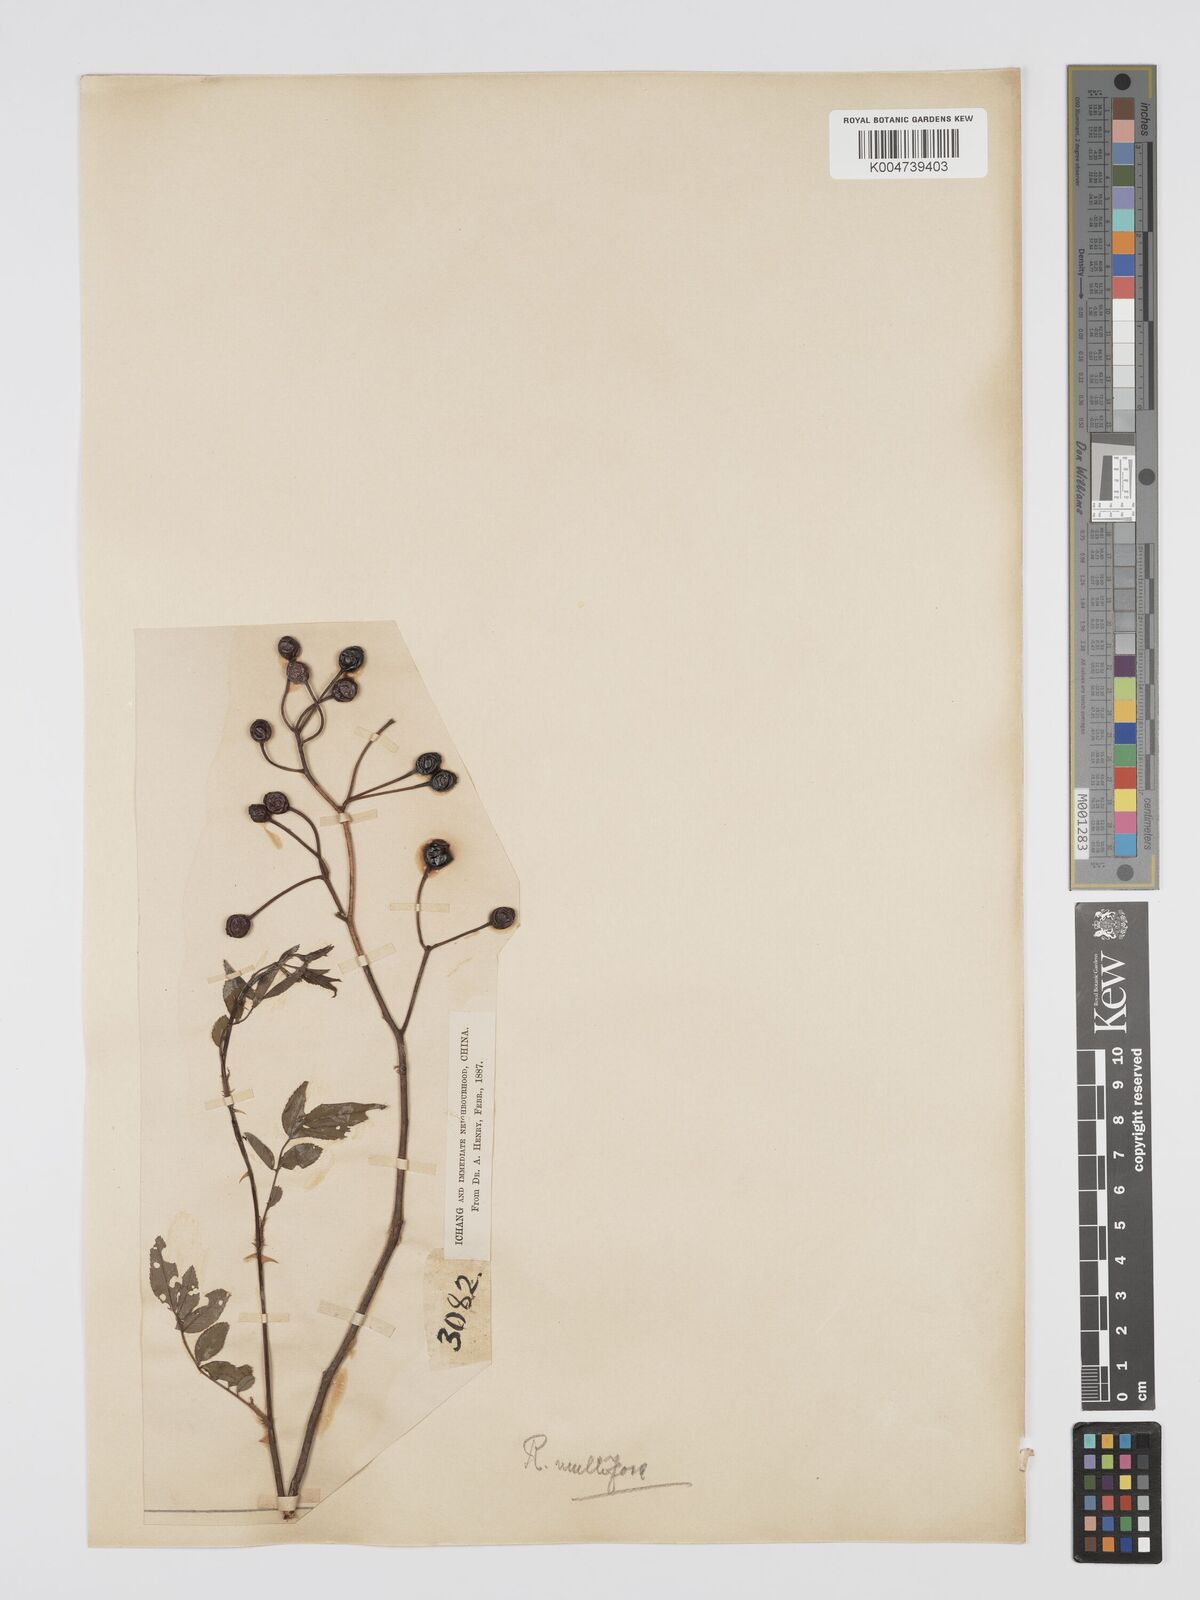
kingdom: Plantae
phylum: Tracheophyta
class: Magnoliopsida
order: Rosales
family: Rosaceae
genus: Rosa
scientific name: Rosa
